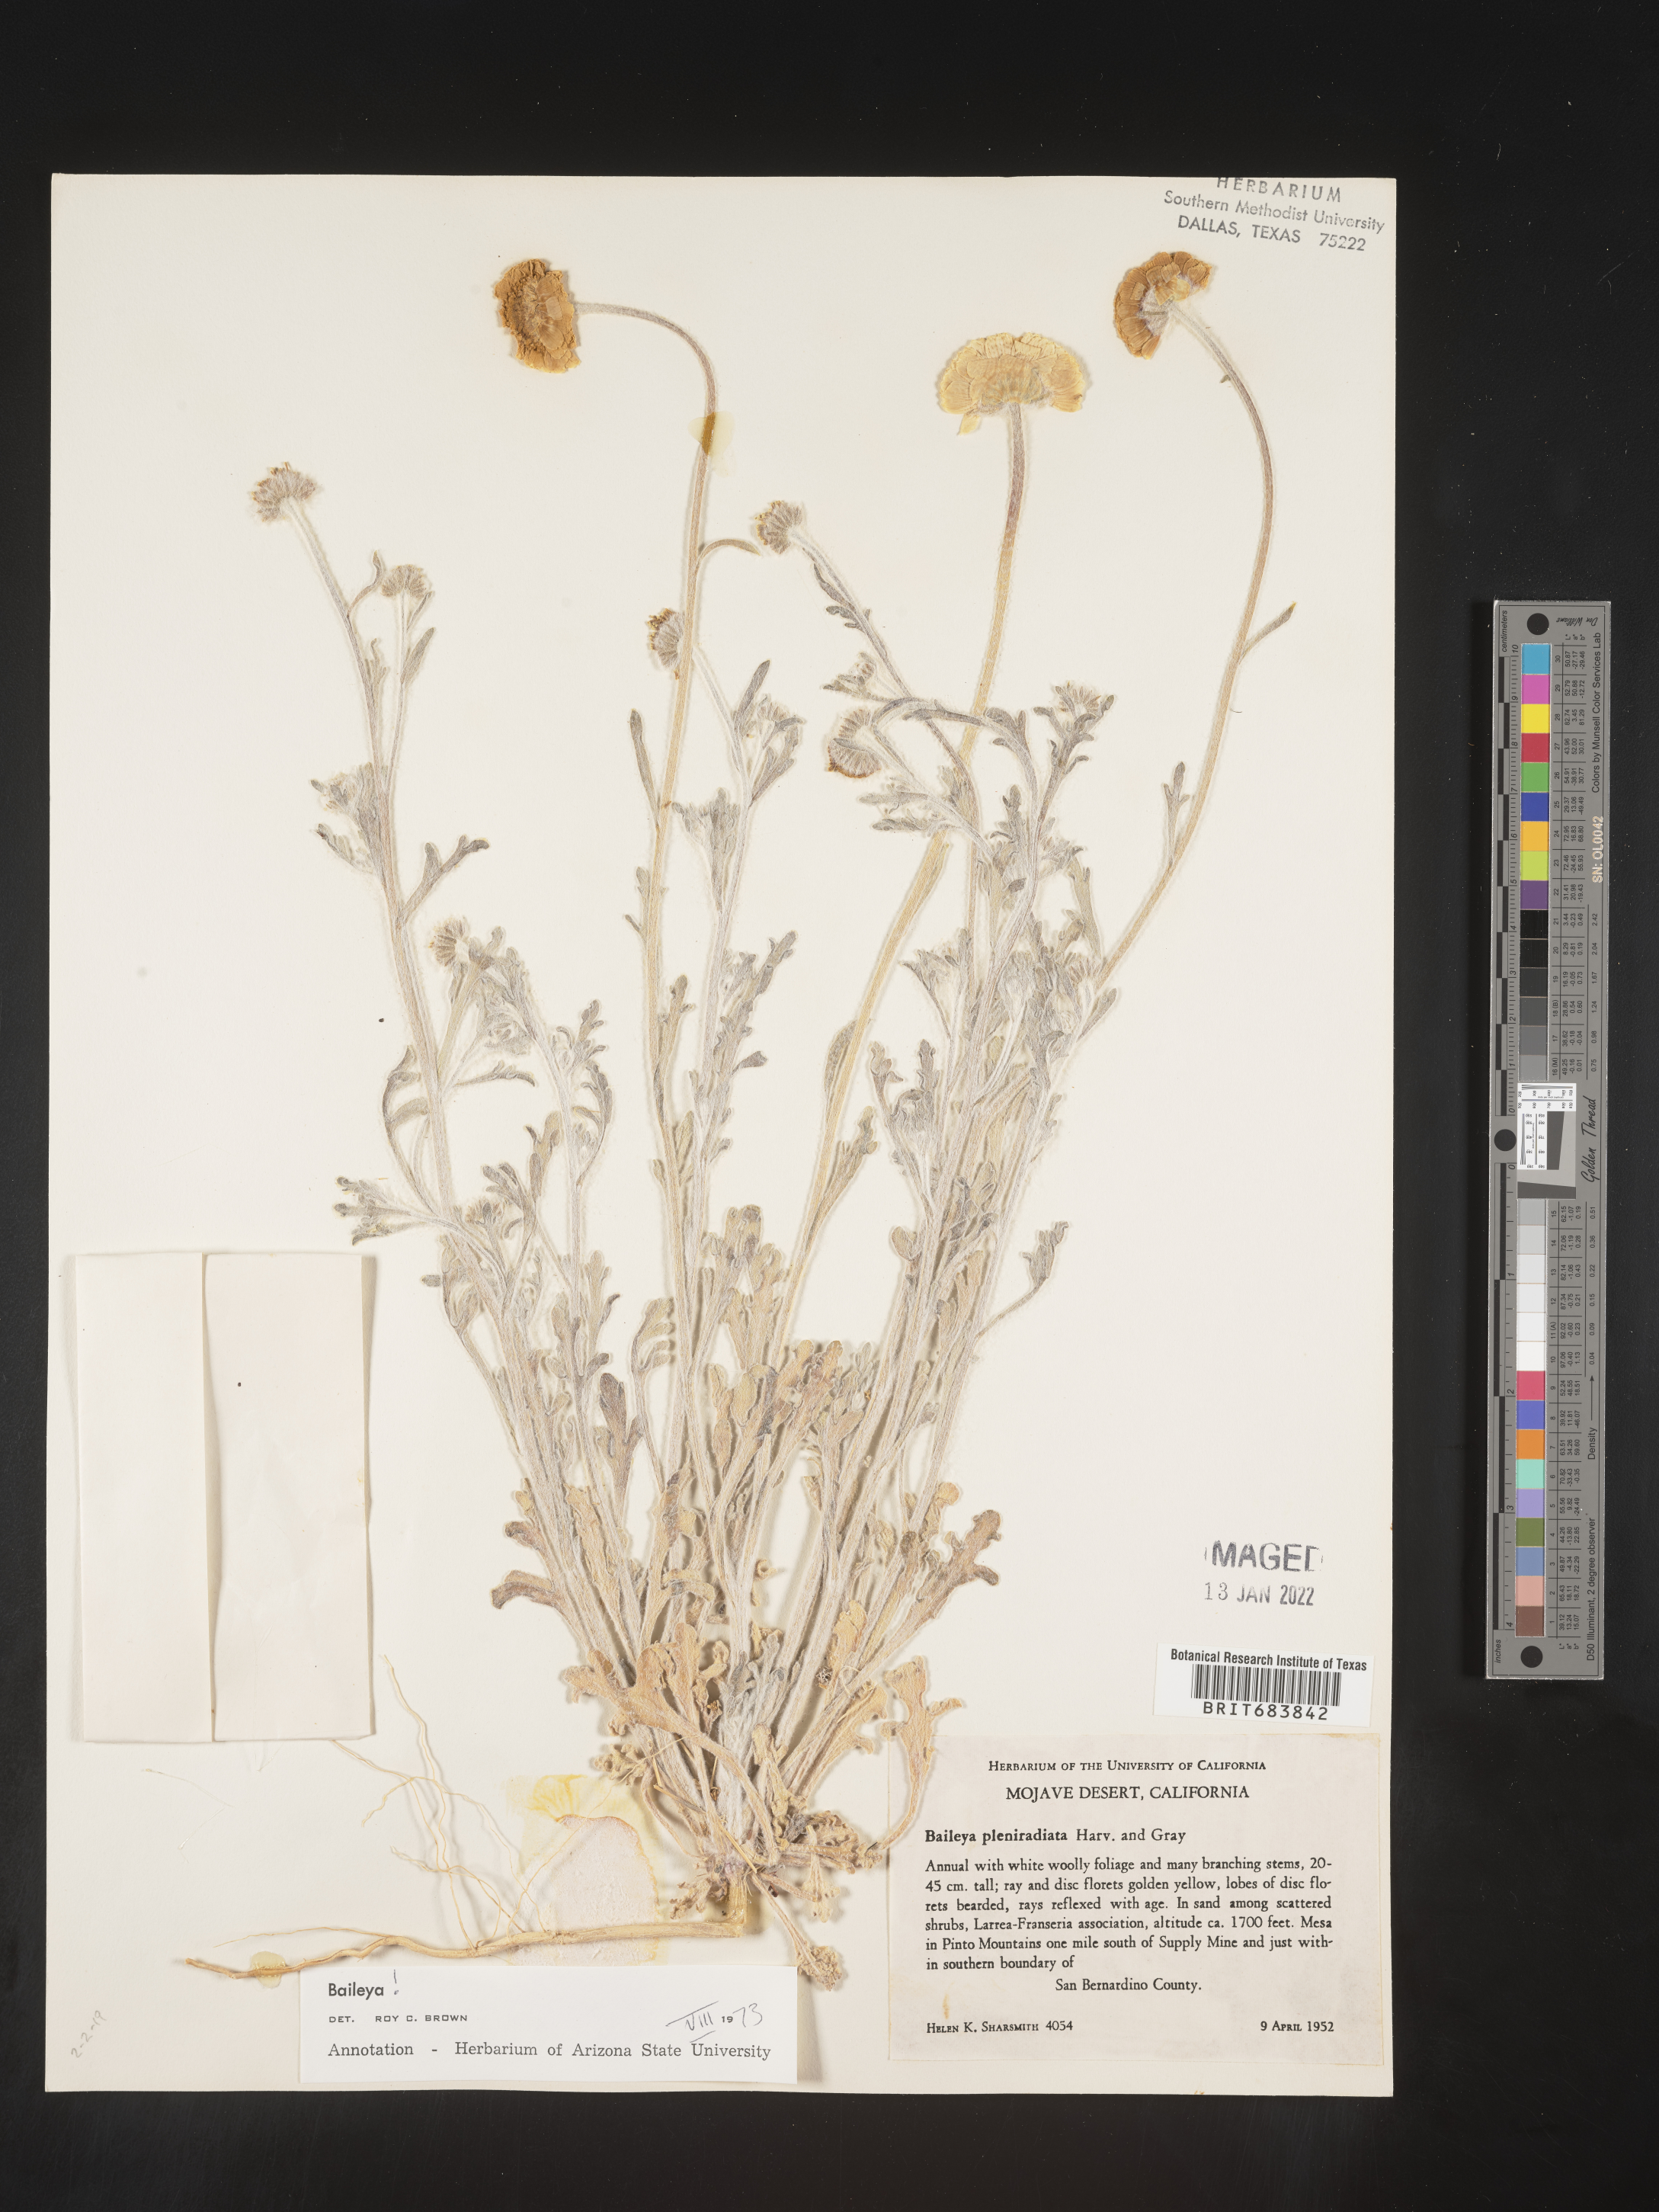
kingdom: Plantae
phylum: Tracheophyta
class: Magnoliopsida
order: Asterales
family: Asteraceae
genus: Baileya
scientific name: Baileya pleniradiata
